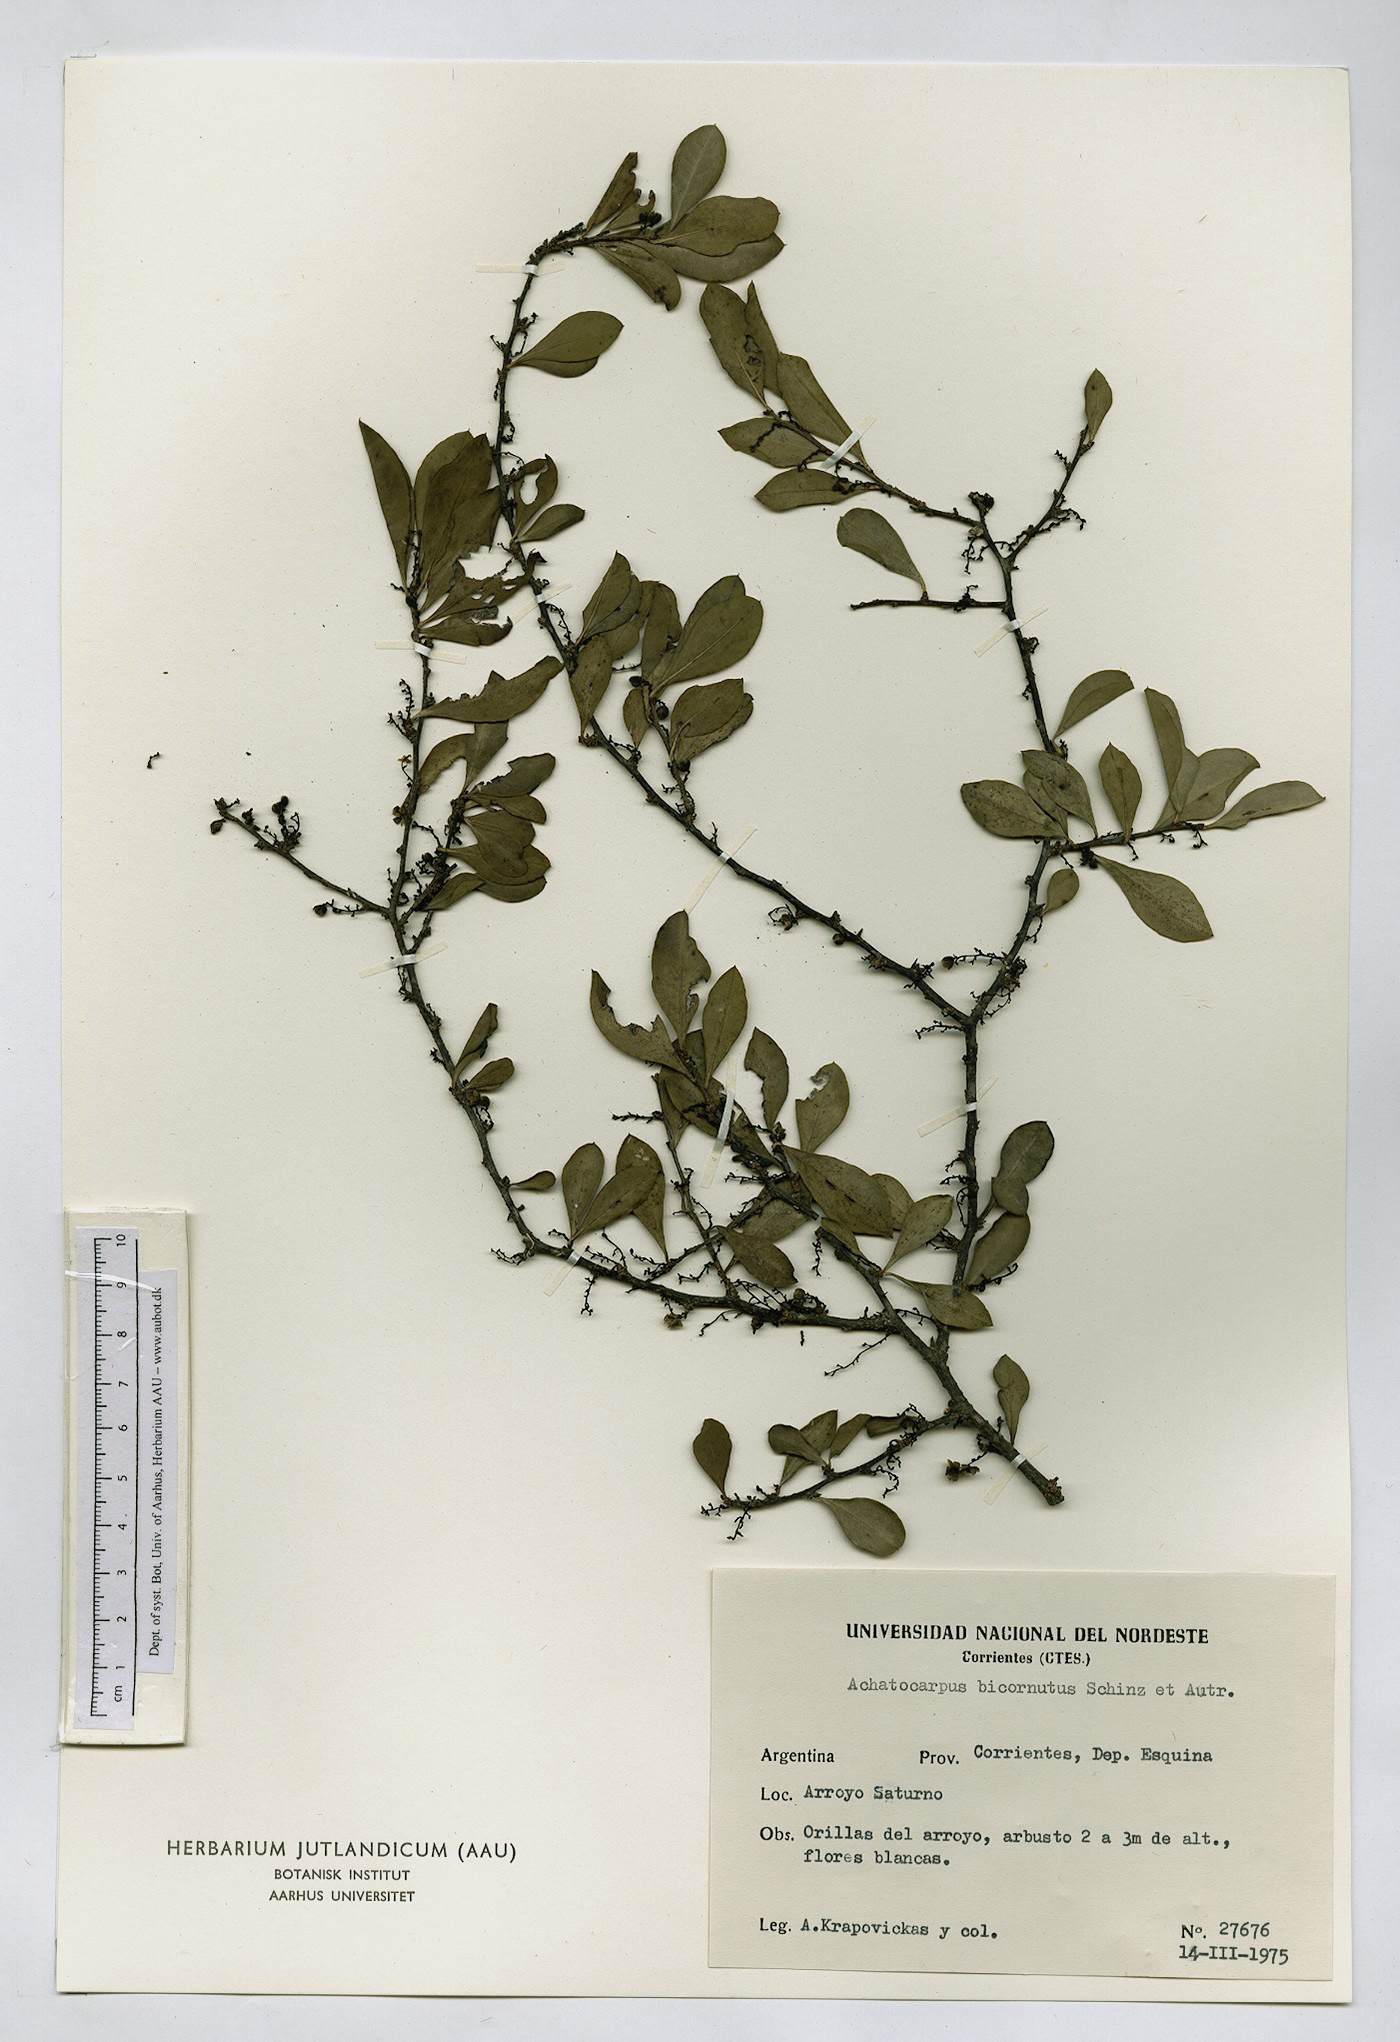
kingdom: Plantae
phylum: Tracheophyta
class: Magnoliopsida
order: Caryophyllales
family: Achatocarpaceae
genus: Achatocarpus
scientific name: Achatocarpus praecox
